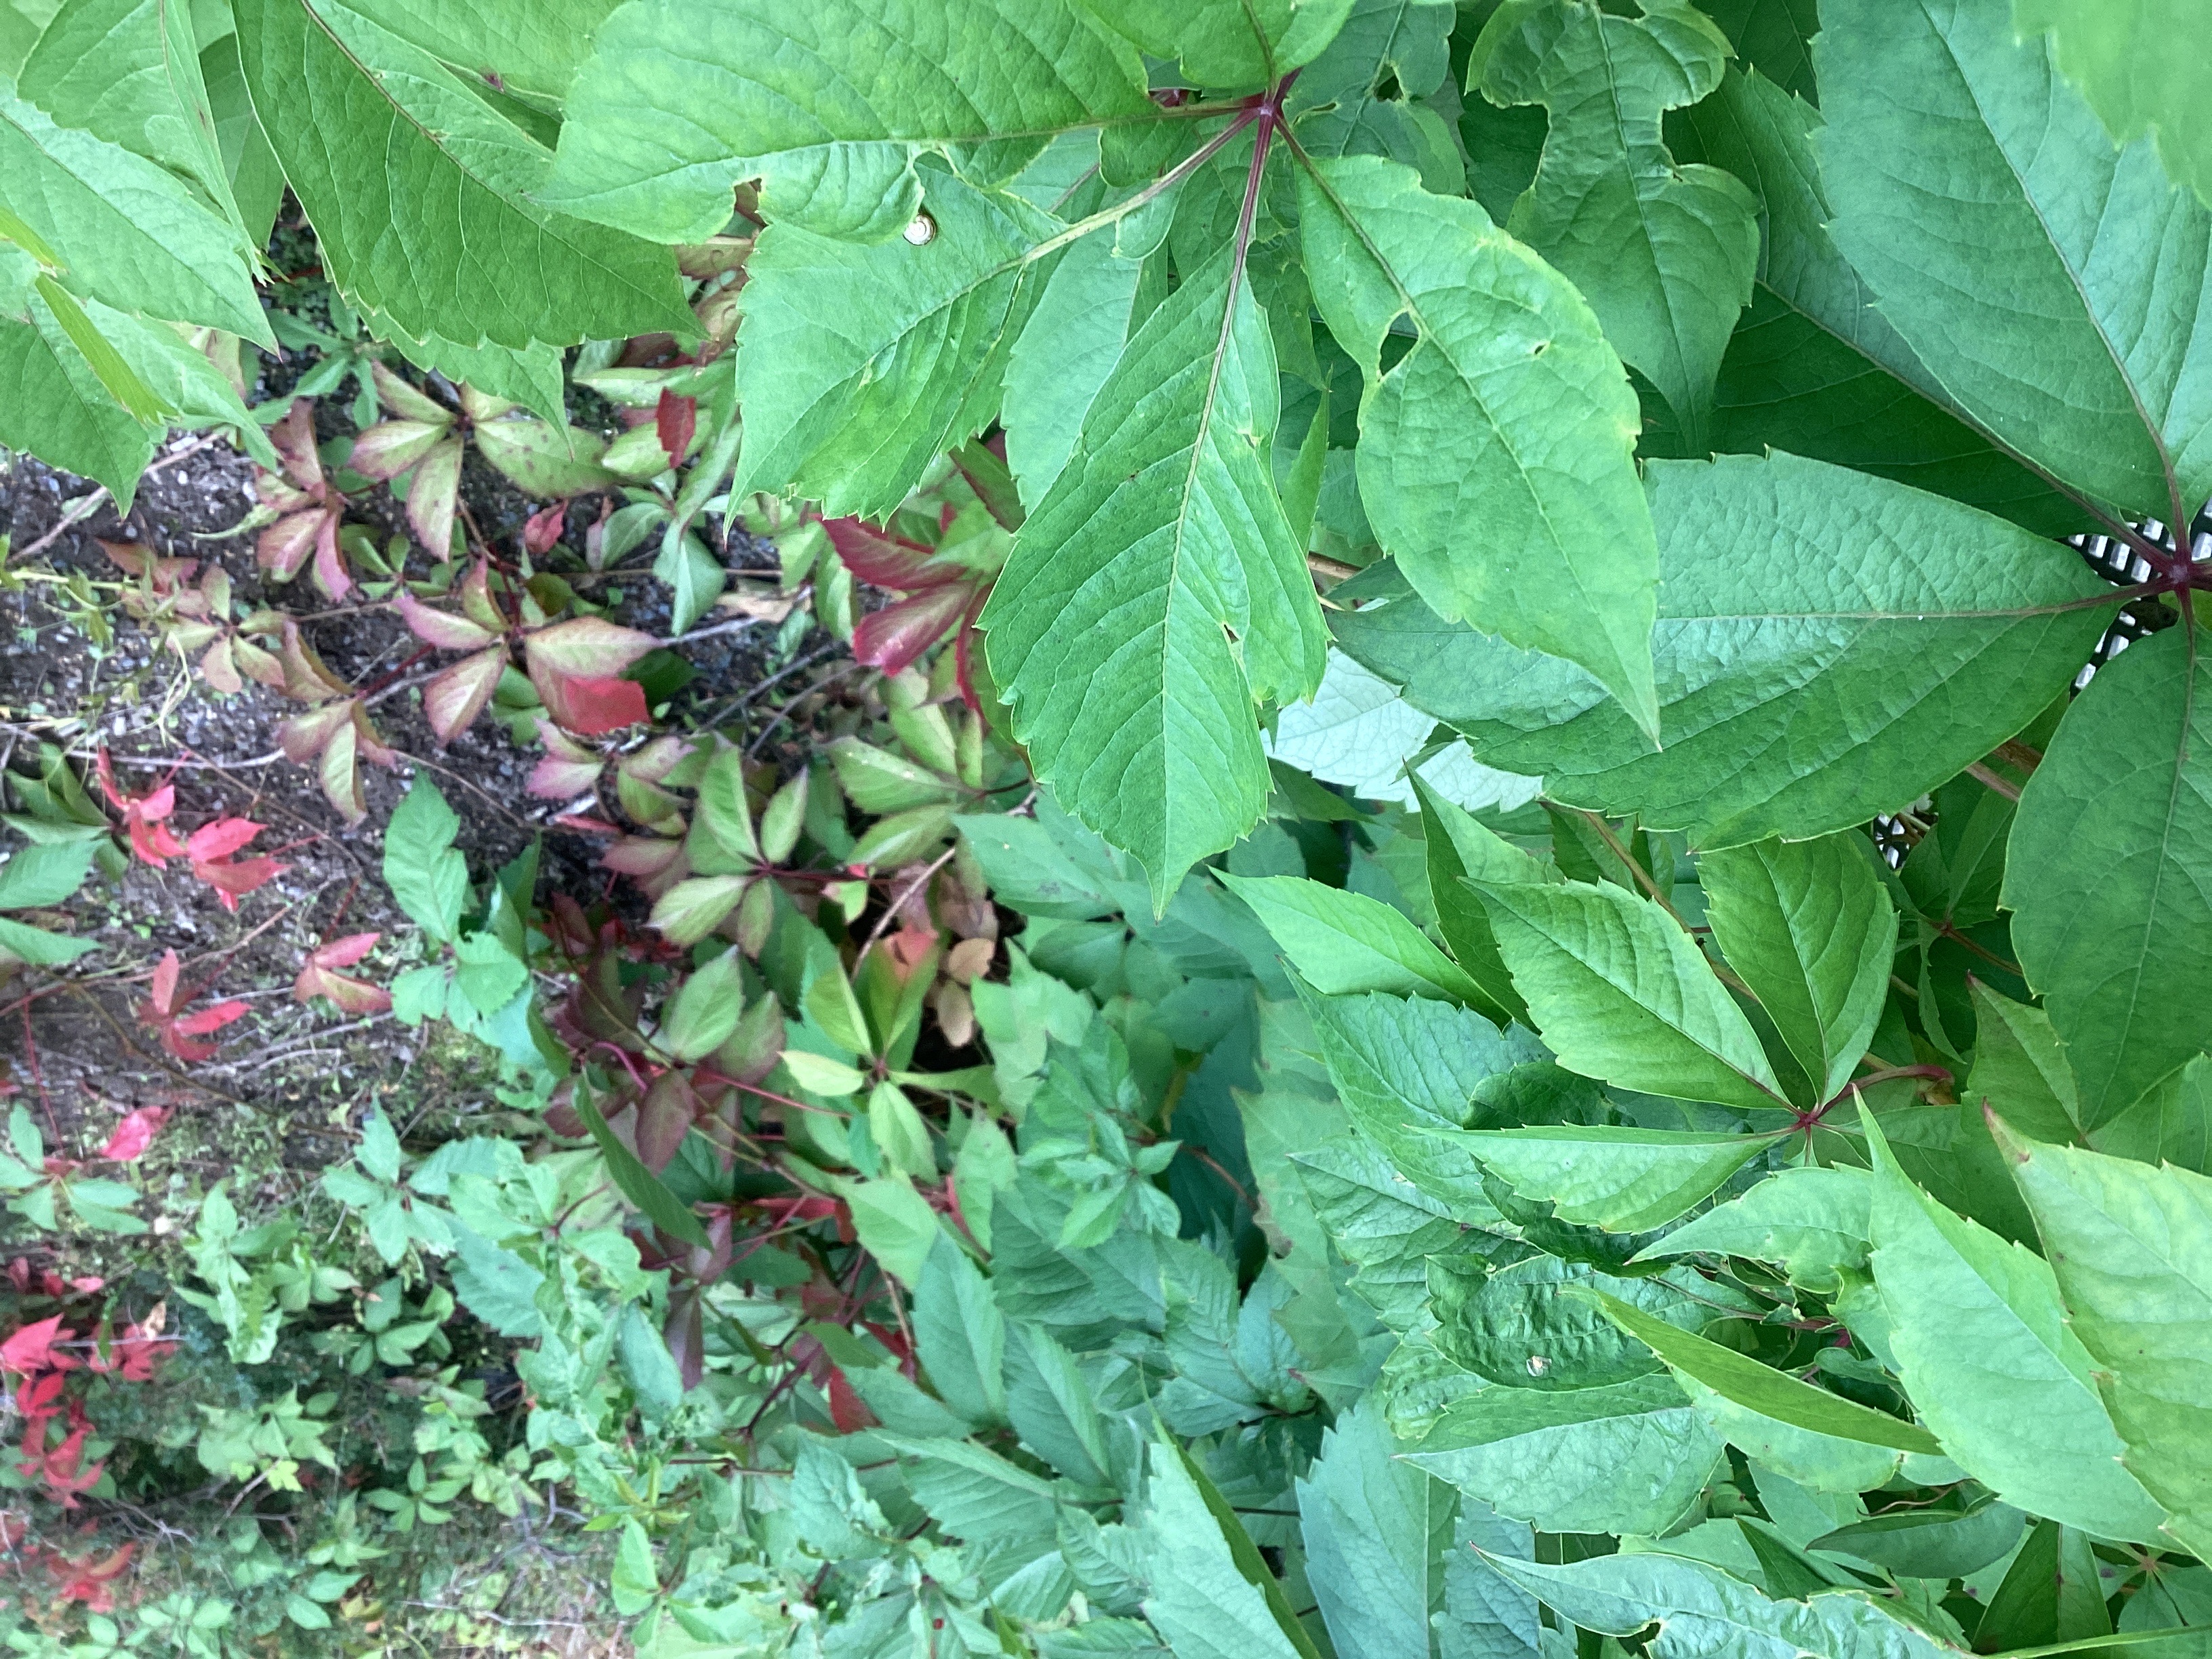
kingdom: Plantae
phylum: Tracheophyta
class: Magnoliopsida
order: Vitales
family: Vitaceae
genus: Parthenocissus
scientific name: Parthenocissus quinquefolia
